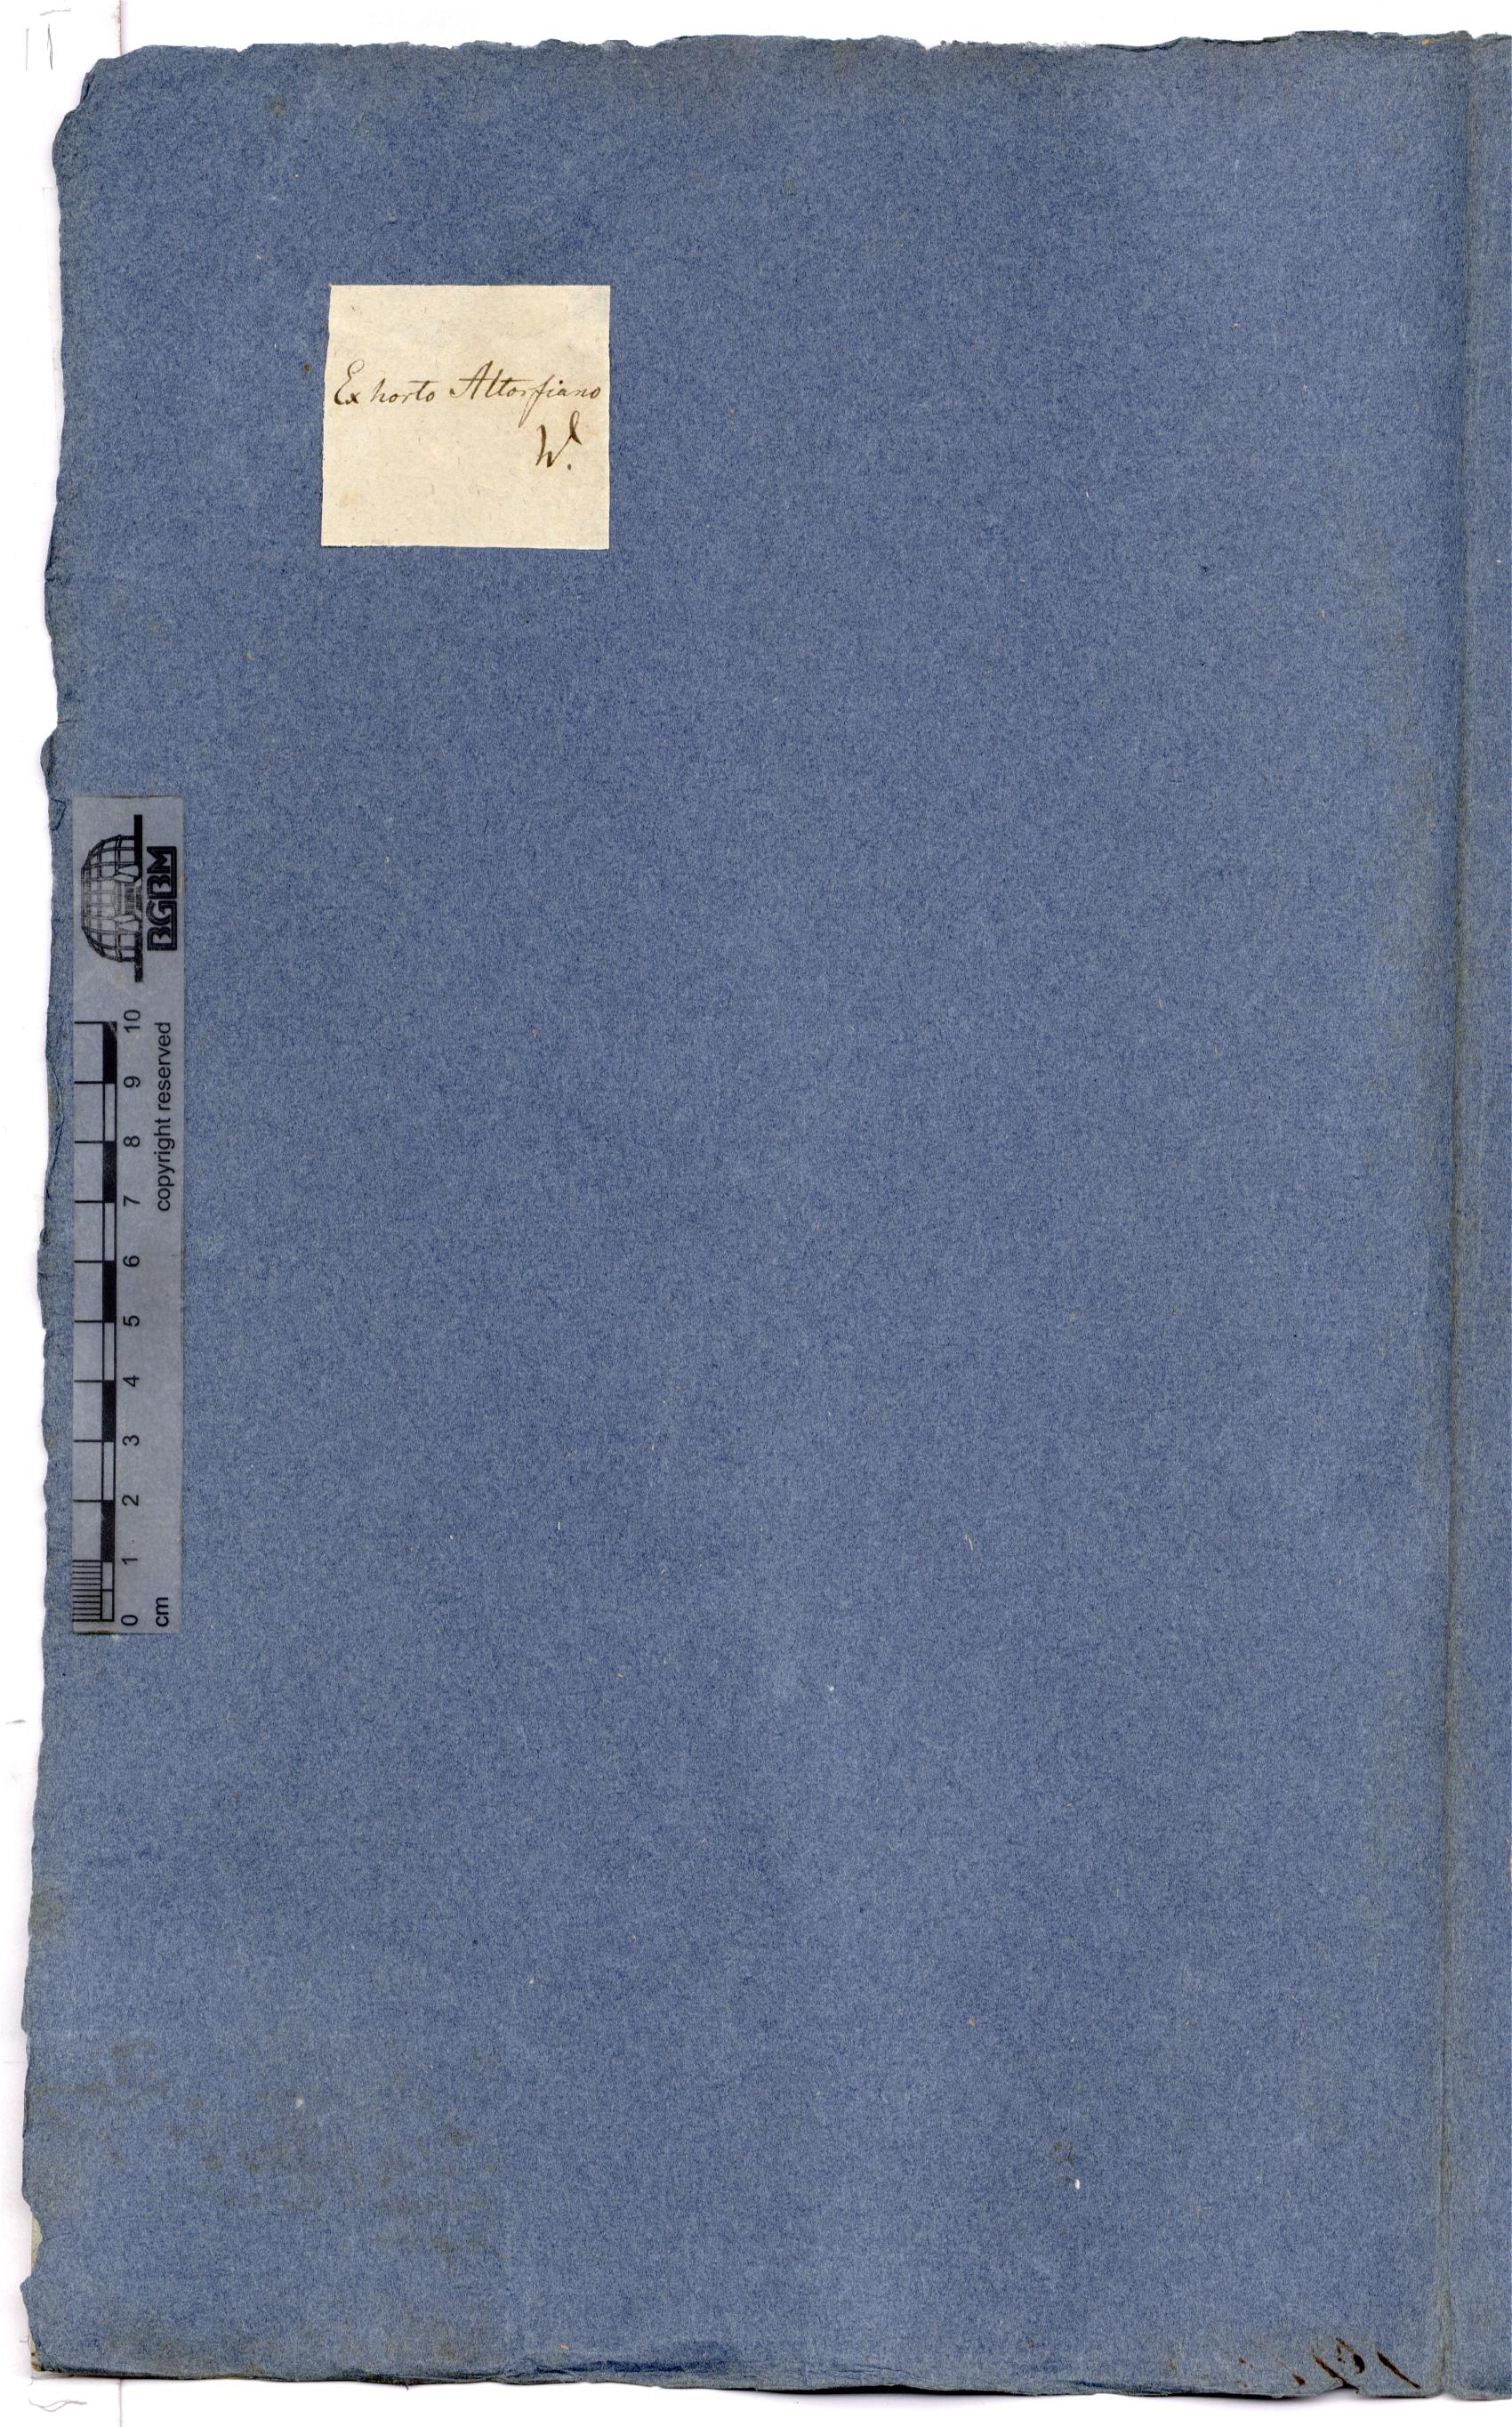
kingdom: Plantae
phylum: Tracheophyta
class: Polypodiopsida
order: Polypodiales
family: Dryopteridaceae
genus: Polystichum
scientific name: Polystichum lonchitis
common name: Holly fern
